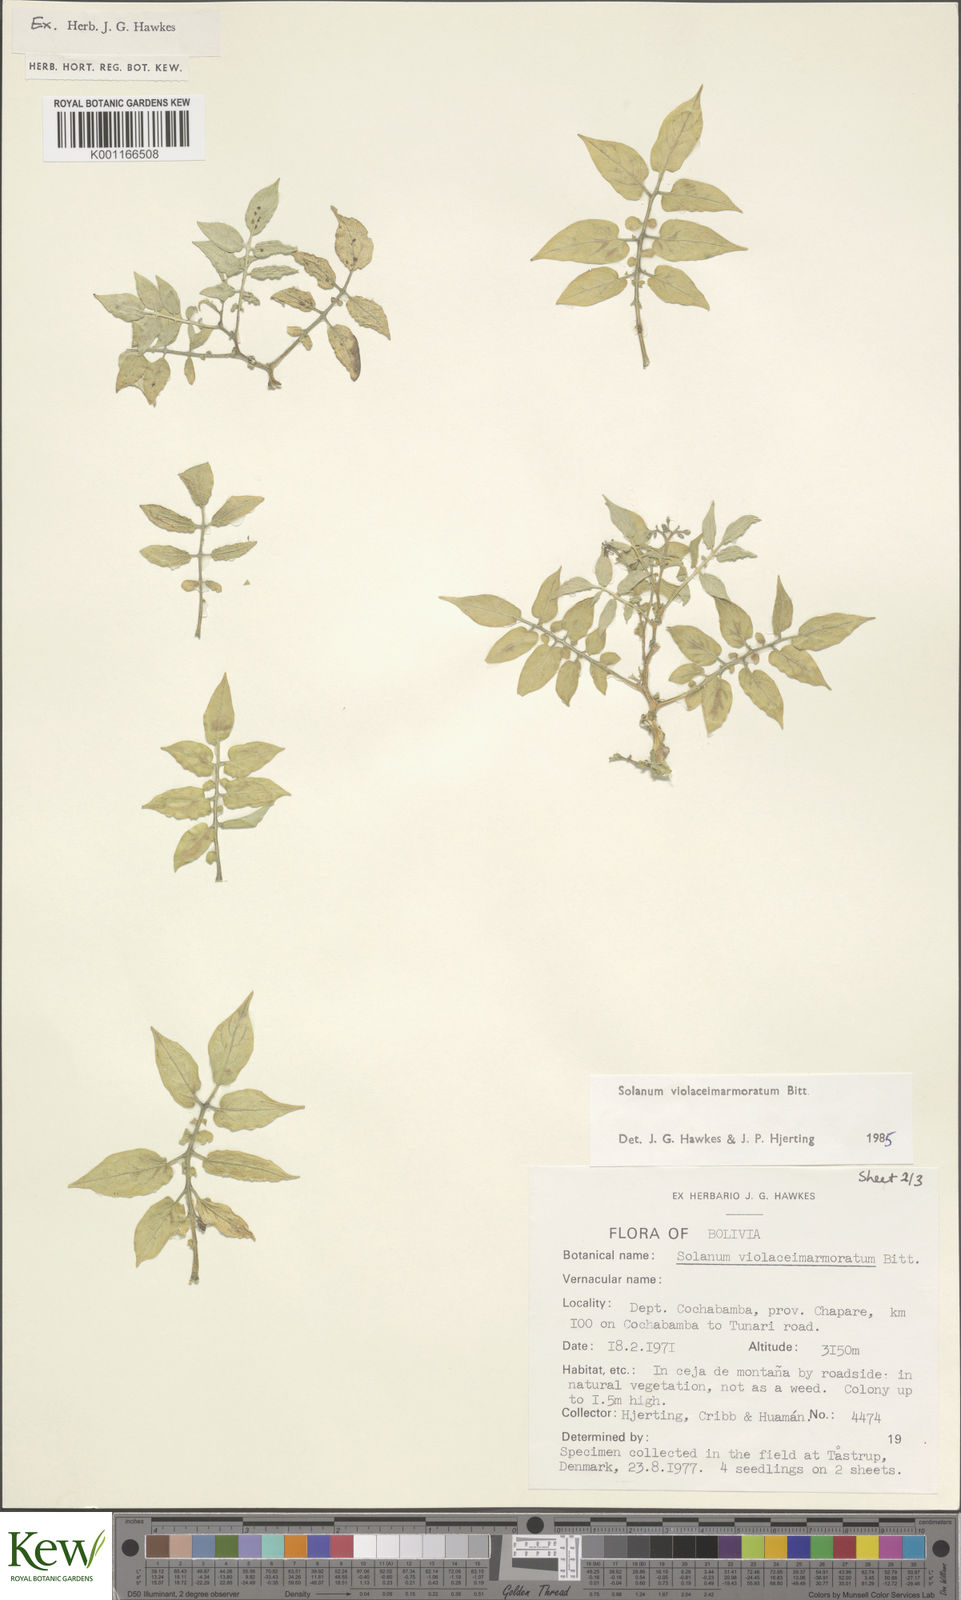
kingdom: Plantae
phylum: Tracheophyta
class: Magnoliopsida
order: Solanales
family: Solanaceae
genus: Solanum
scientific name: Solanum violaceimarmoratum
